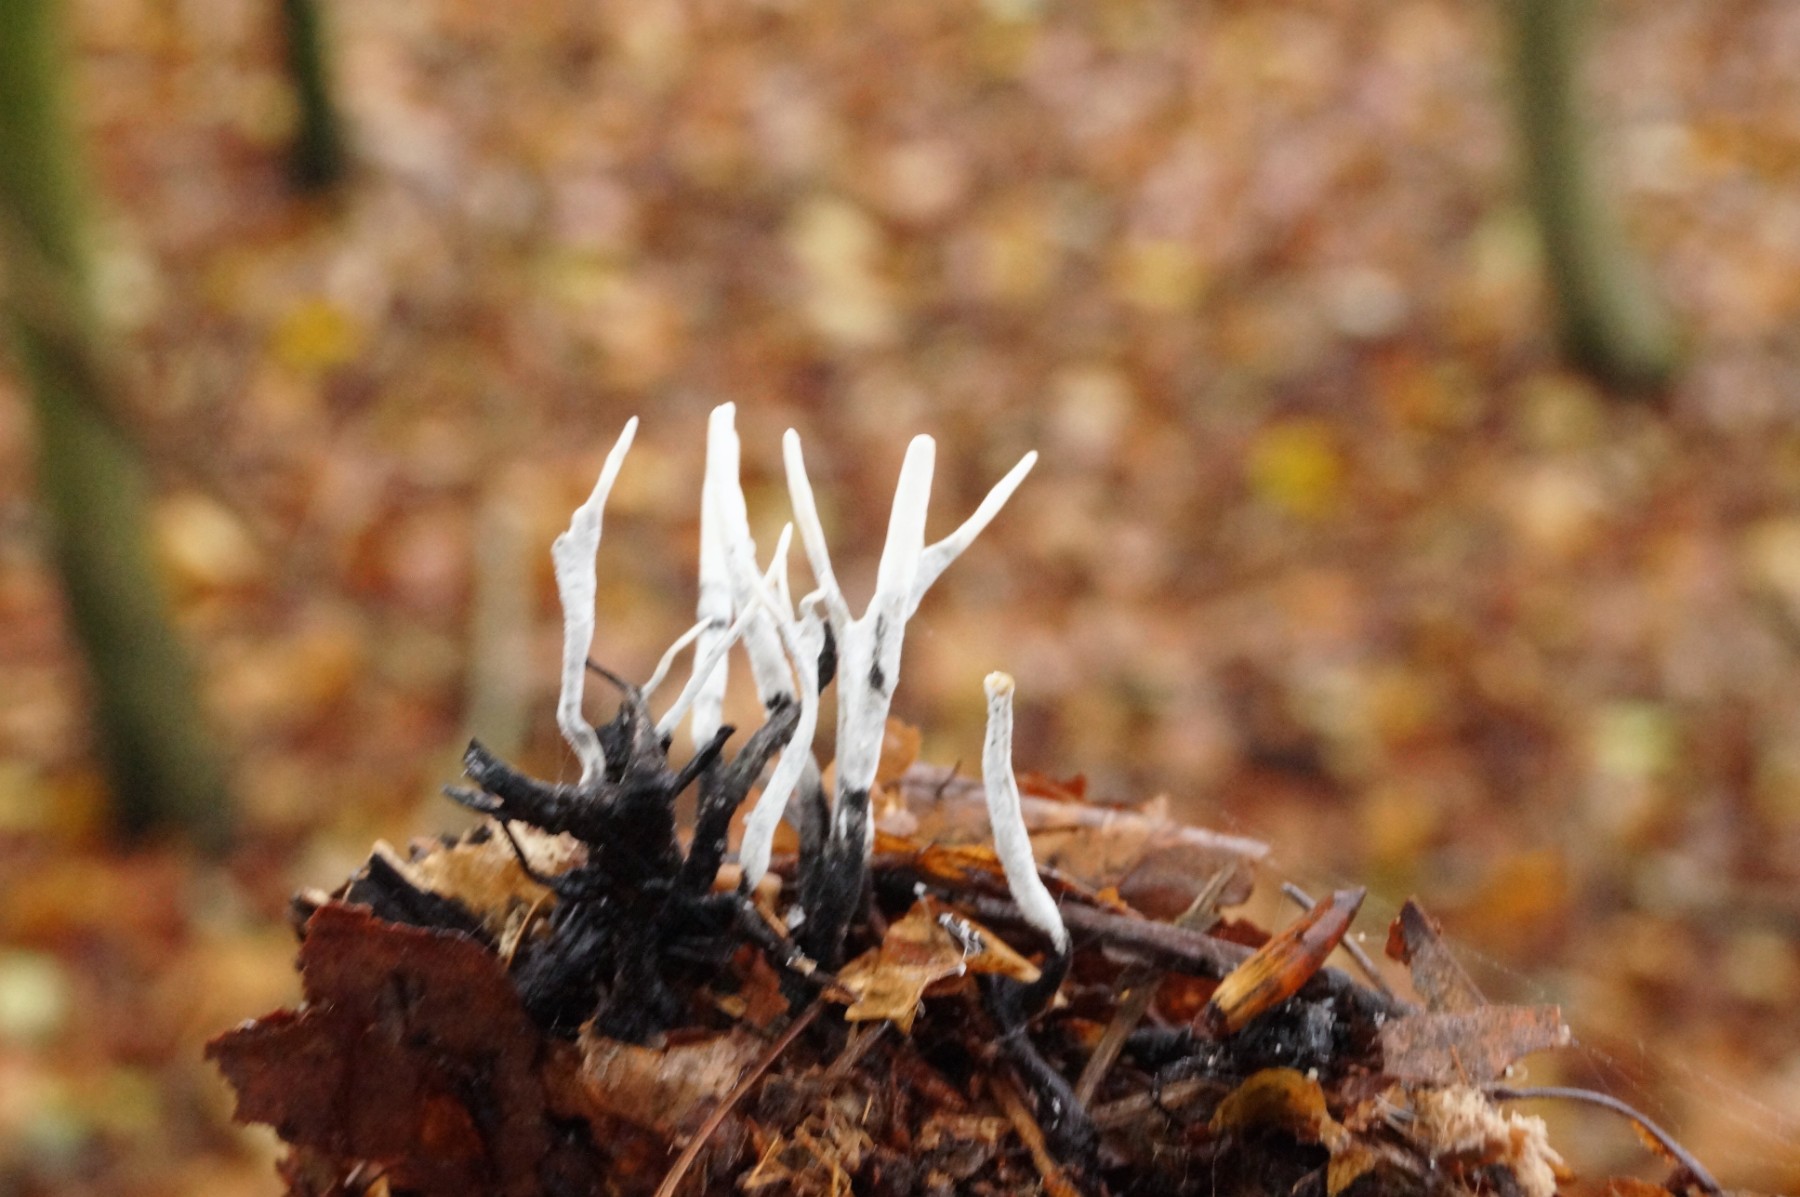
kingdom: Fungi
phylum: Ascomycota
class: Sordariomycetes
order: Xylariales
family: Xylariaceae
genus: Xylaria
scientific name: Xylaria hypoxylon
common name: grenet stødsvamp
